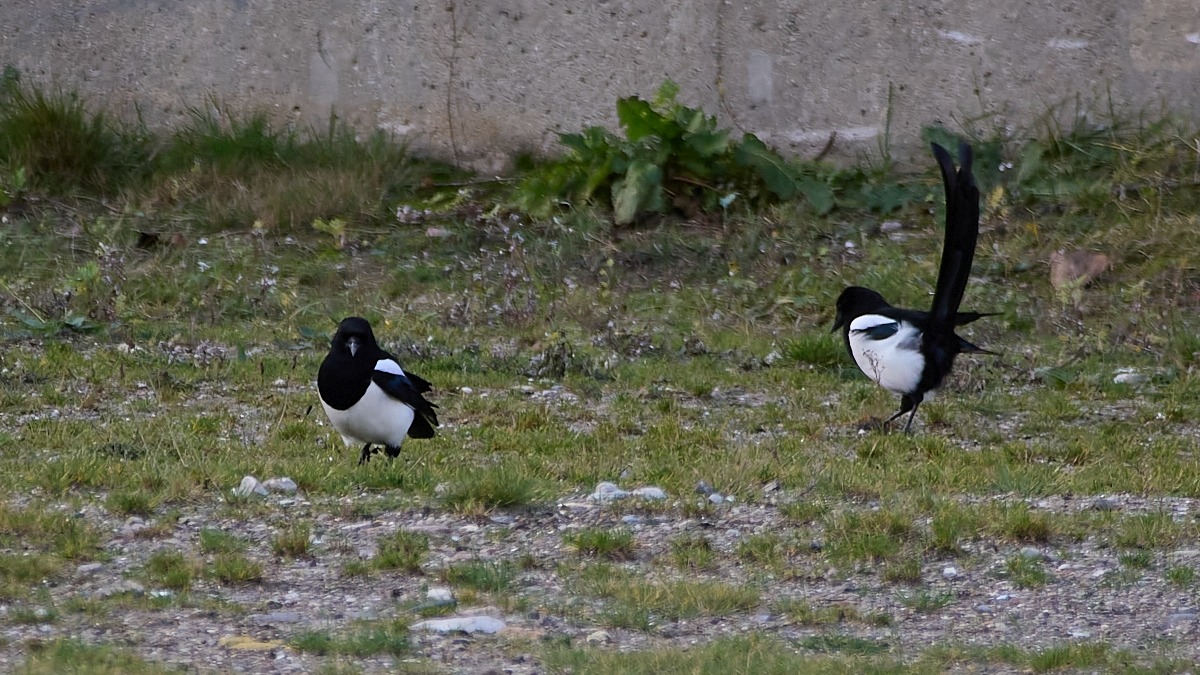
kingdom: Animalia
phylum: Chordata
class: Aves
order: Passeriformes
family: Corvidae
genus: Pica
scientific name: Pica pica
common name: Husskade
